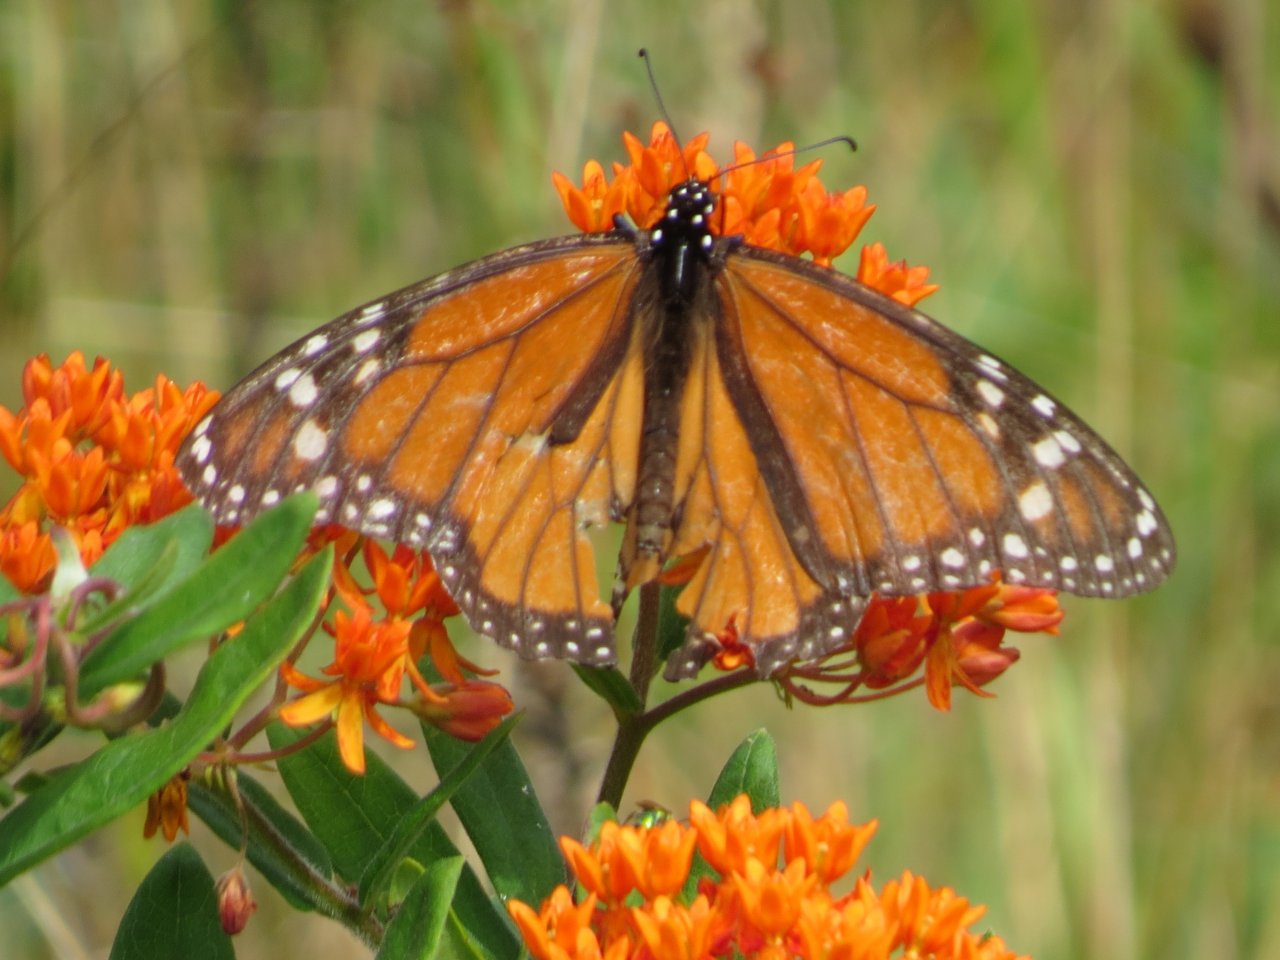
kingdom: Animalia
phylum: Arthropoda
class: Insecta
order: Lepidoptera
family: Nymphalidae
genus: Danaus
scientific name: Danaus plexippus
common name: Monarch
